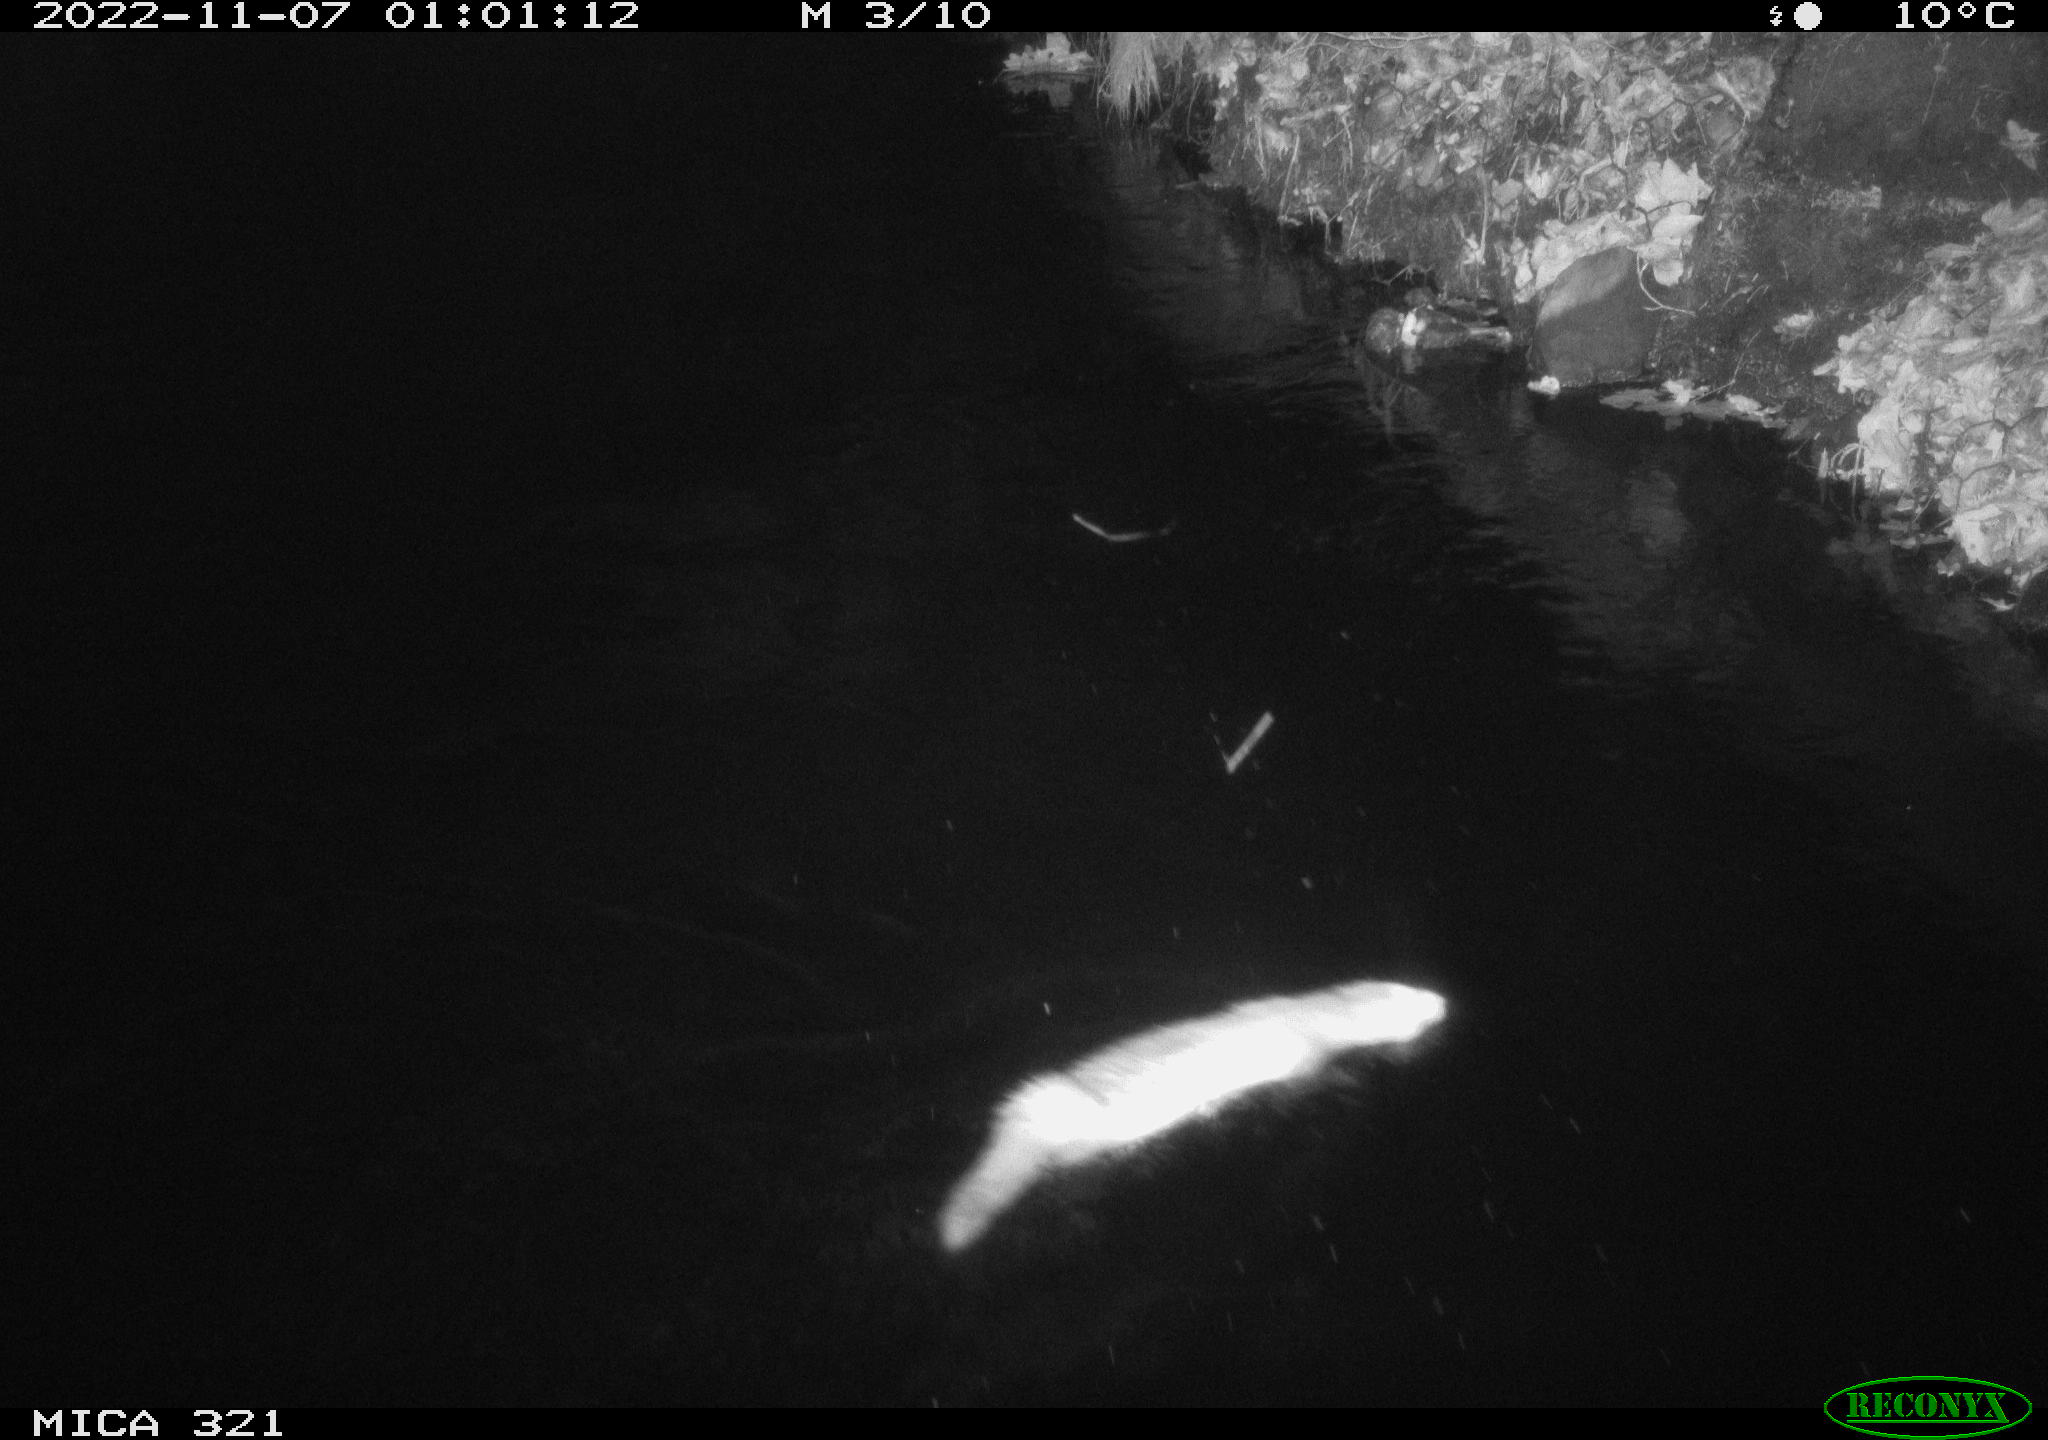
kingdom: Animalia
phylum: Chordata
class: Mammalia
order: Rodentia
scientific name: Rodentia
